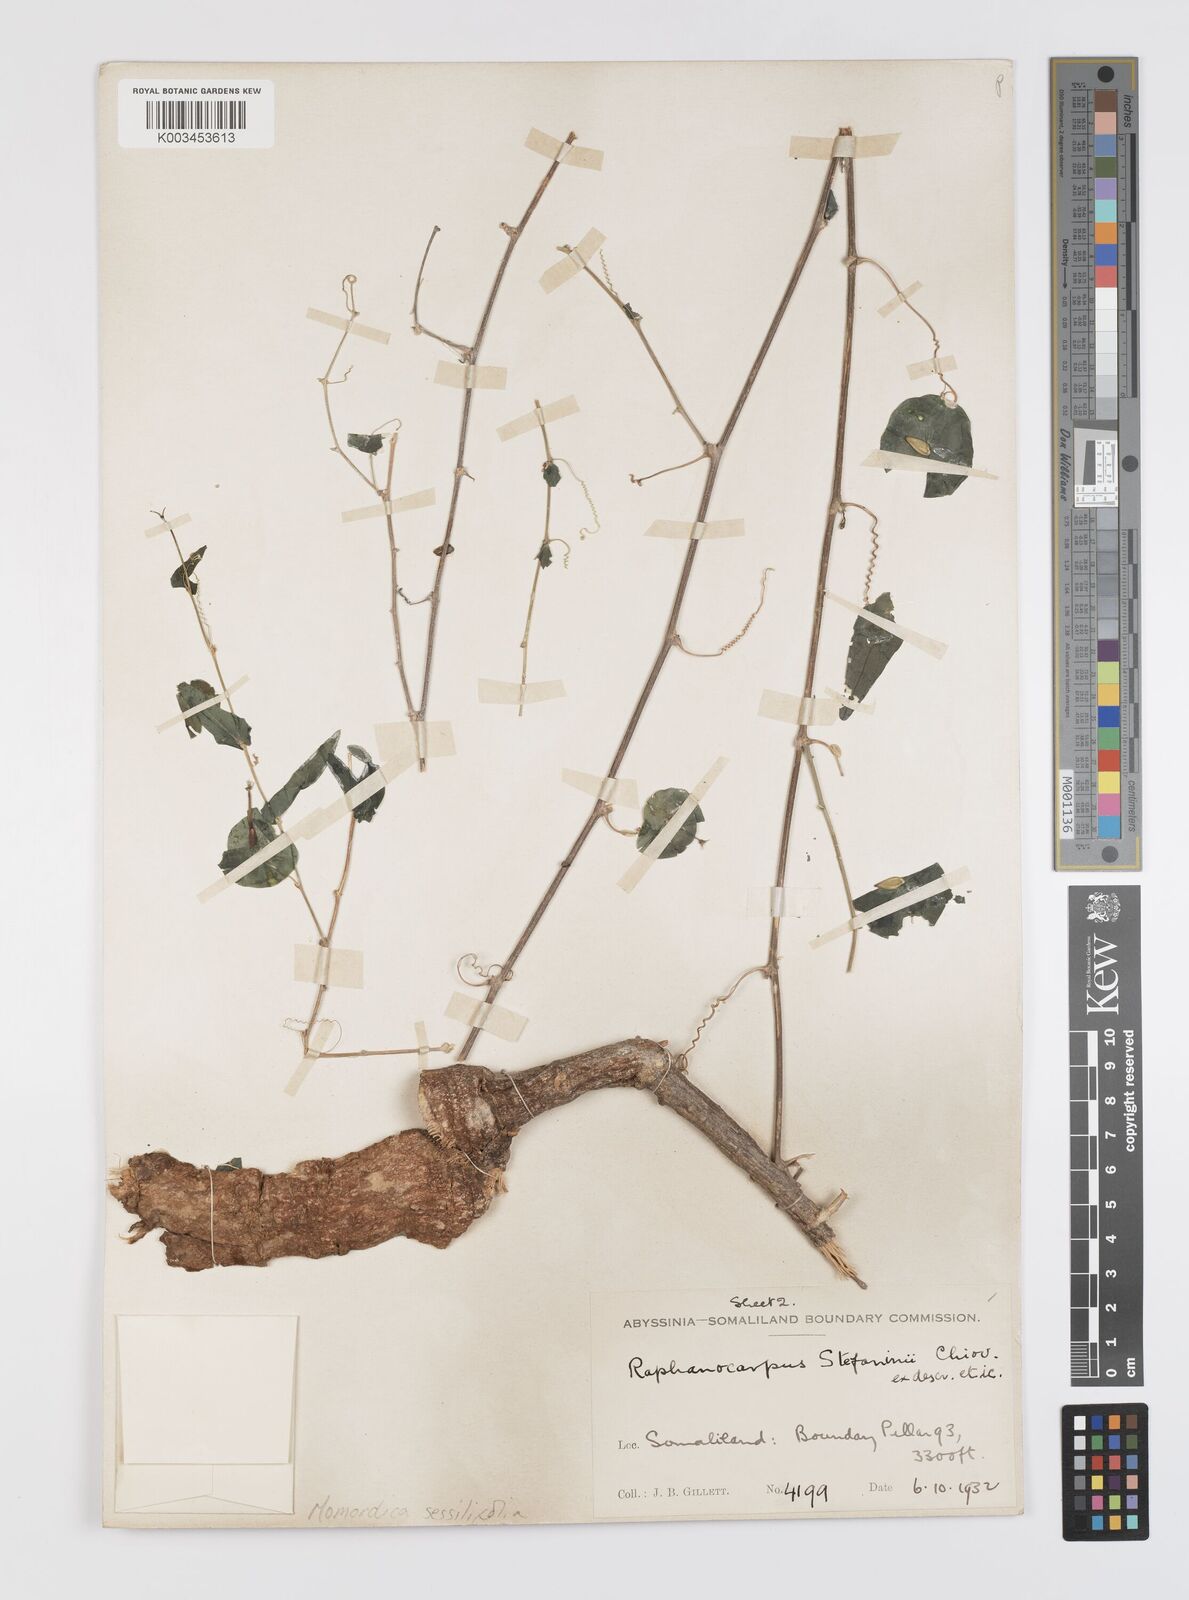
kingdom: Plantae
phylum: Tracheophyta
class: Magnoliopsida
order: Cucurbitales
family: Cucurbitaceae
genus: Momordica
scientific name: Momordica sessilifolia
